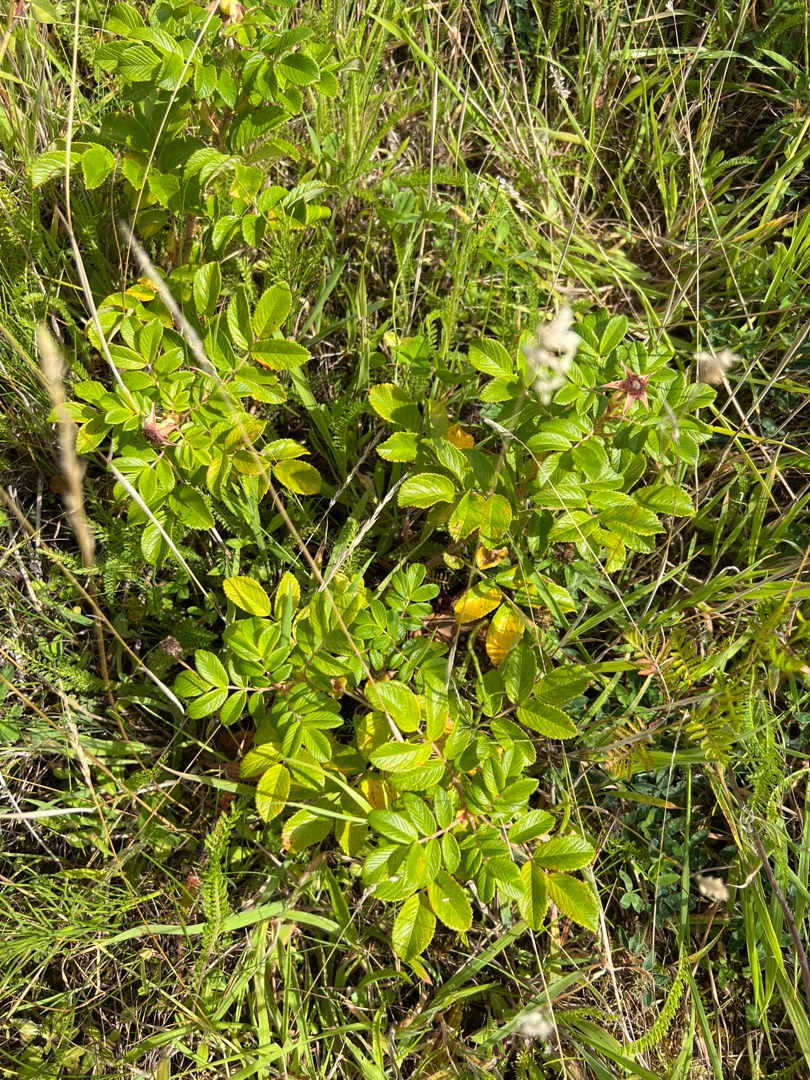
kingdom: Plantae
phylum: Tracheophyta
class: Magnoliopsida
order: Rosales
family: Rosaceae
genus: Rosa
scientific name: Rosa rugosa
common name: Rynket rose
